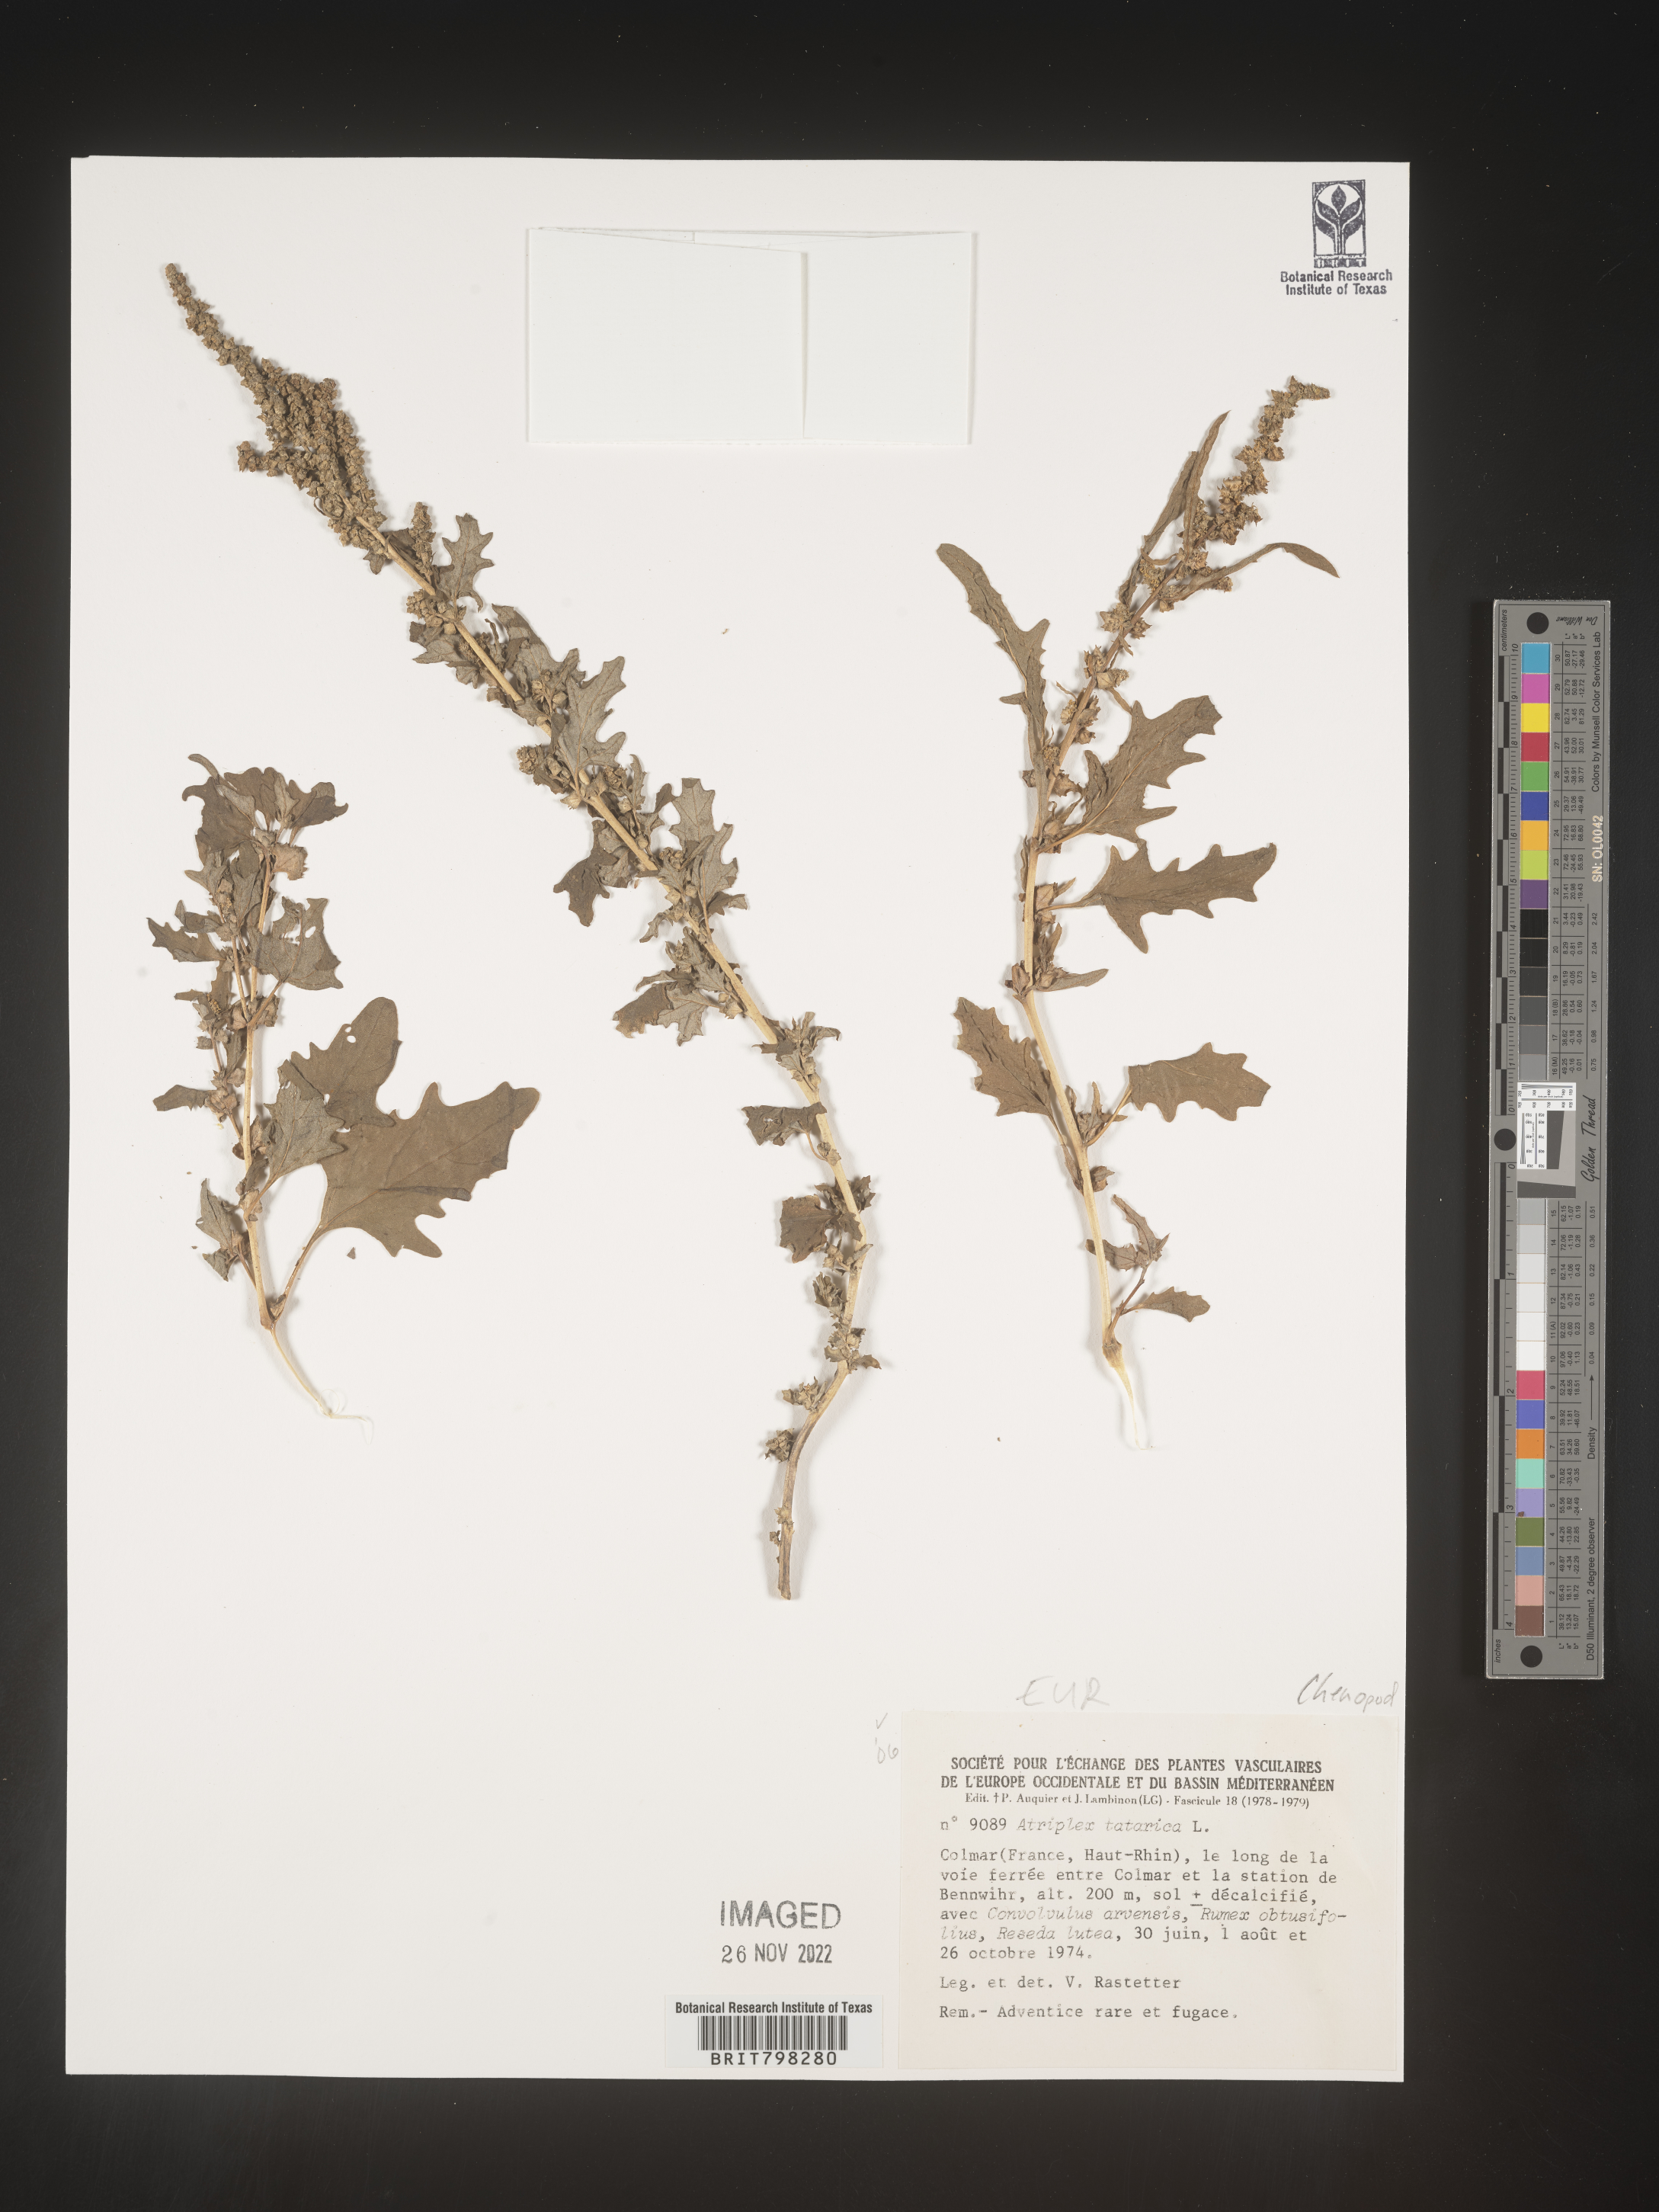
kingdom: Plantae
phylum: Tracheophyta
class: Magnoliopsida
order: Caryophyllales
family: Amaranthaceae
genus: Atriplex
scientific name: Atriplex
